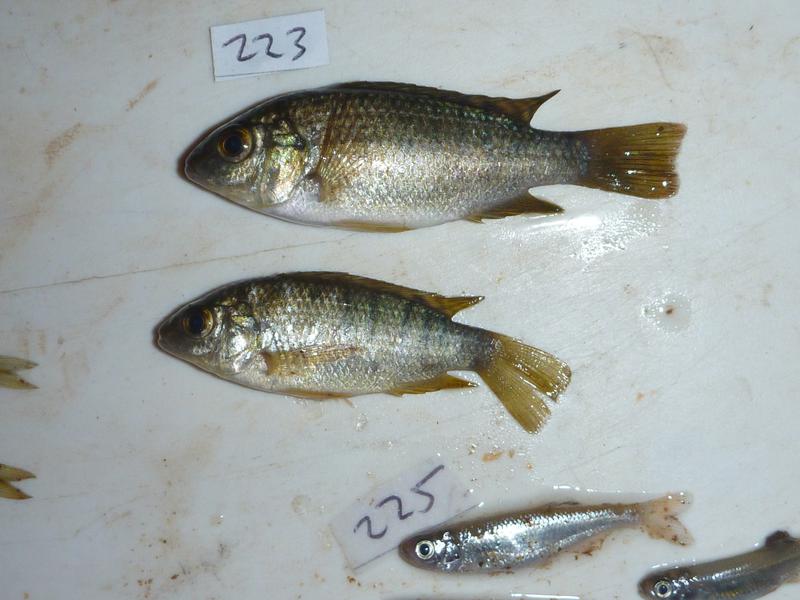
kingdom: Animalia
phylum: Chordata
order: Perciformes
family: Cichlidae
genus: Oreochromis
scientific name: Oreochromis leucostictus
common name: Blue spotted tilapia
